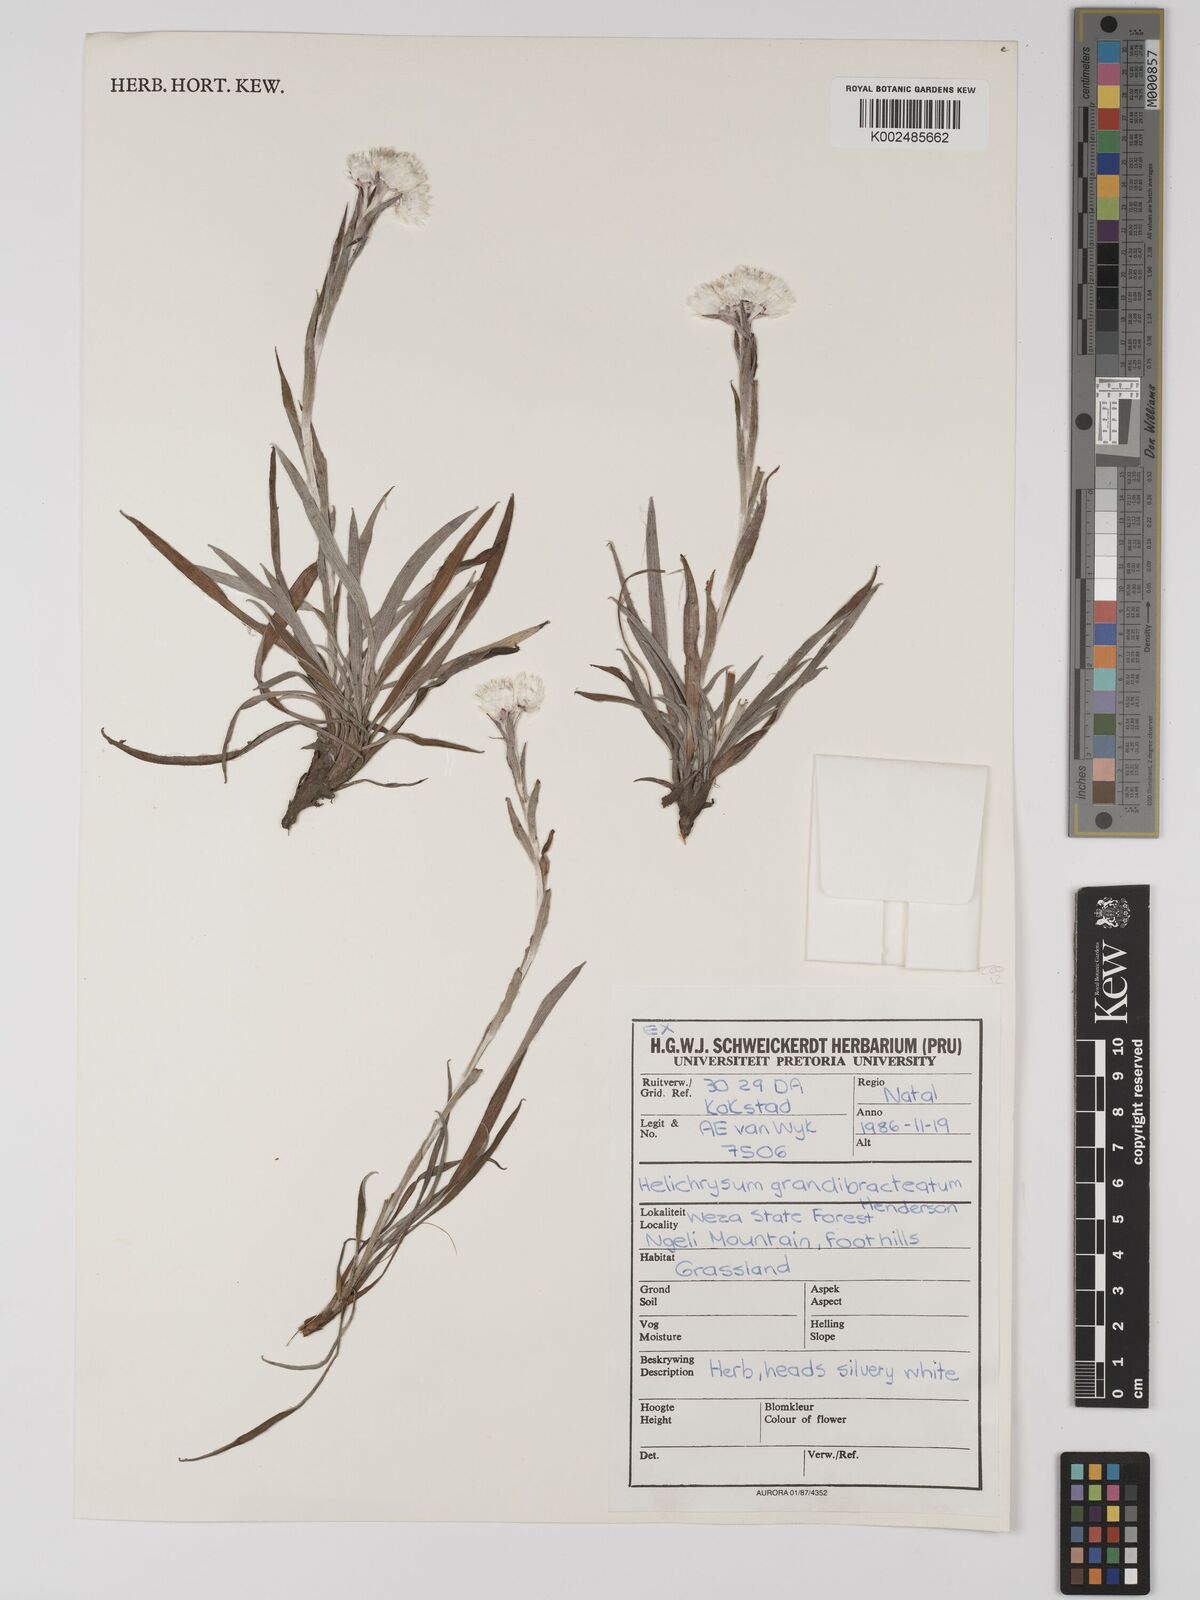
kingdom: Plantae
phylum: Tracheophyta
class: Magnoliopsida
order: Asterales
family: Asteraceae
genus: Helichrysum
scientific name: Helichrysum grandibracteatum
